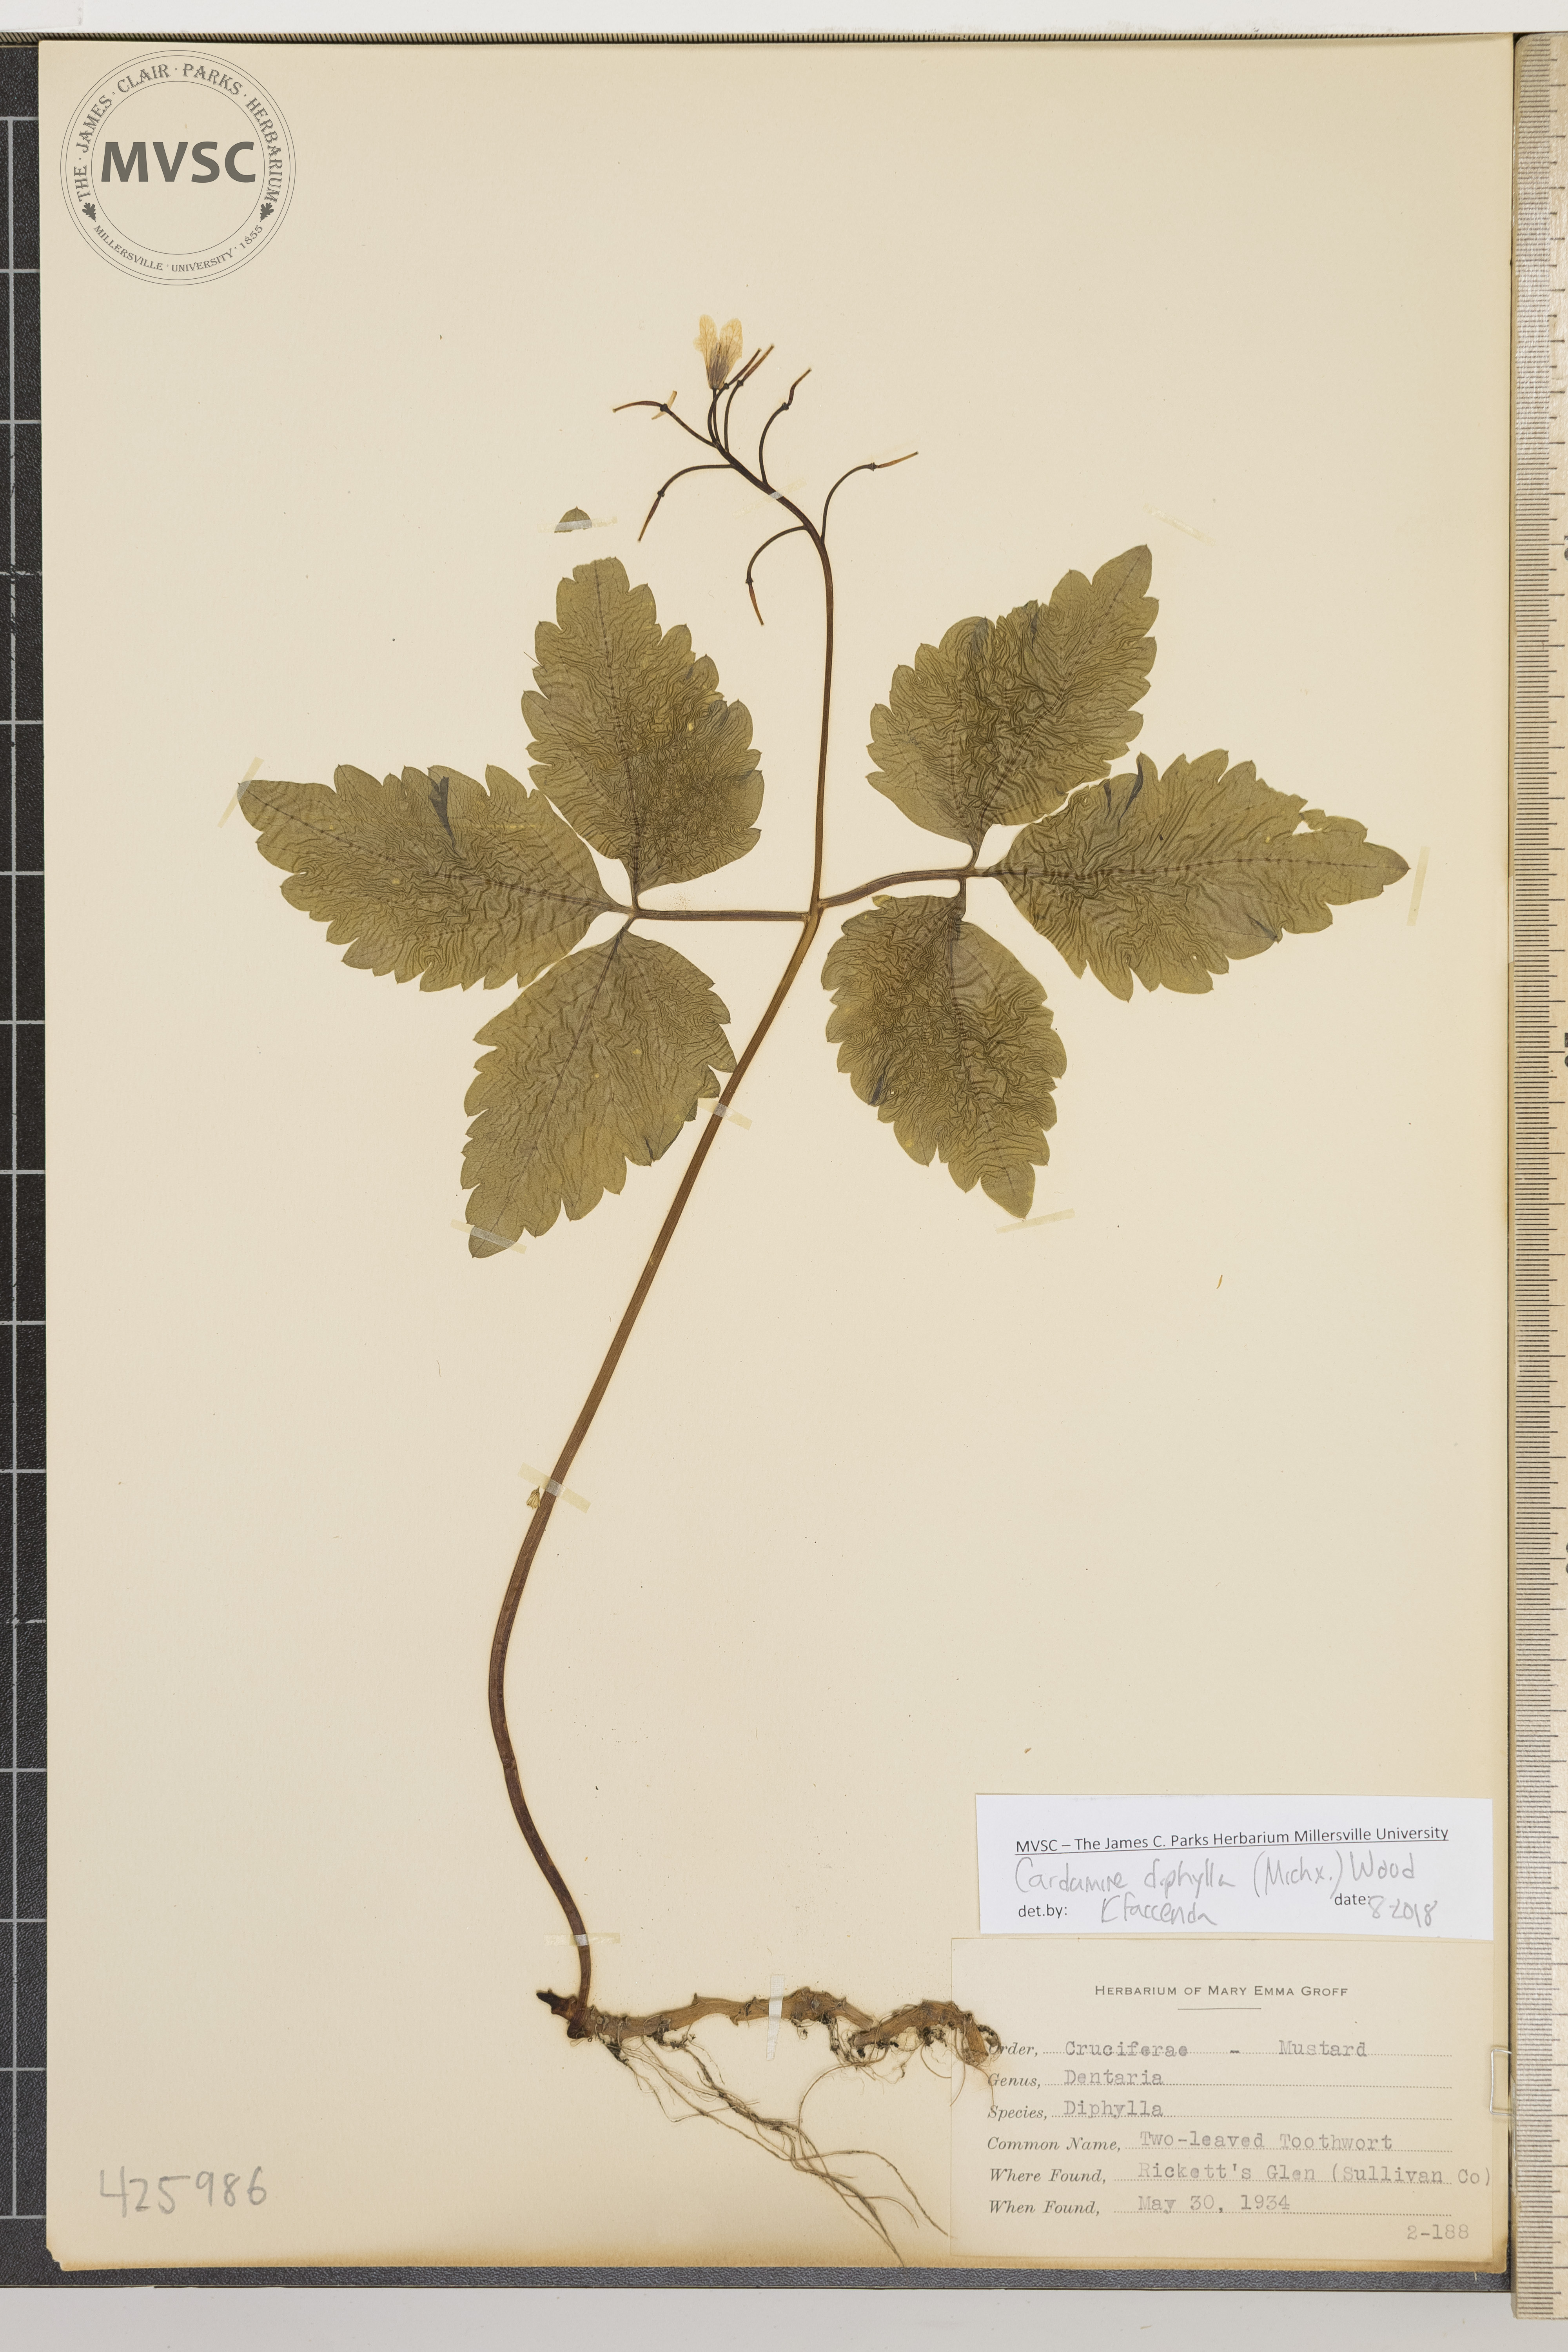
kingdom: Plantae
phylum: Tracheophyta
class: Magnoliopsida
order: Brassicales
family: Brassicaceae
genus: Cardamine
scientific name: Cardamine diphylla
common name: Two-leaved toothwort
